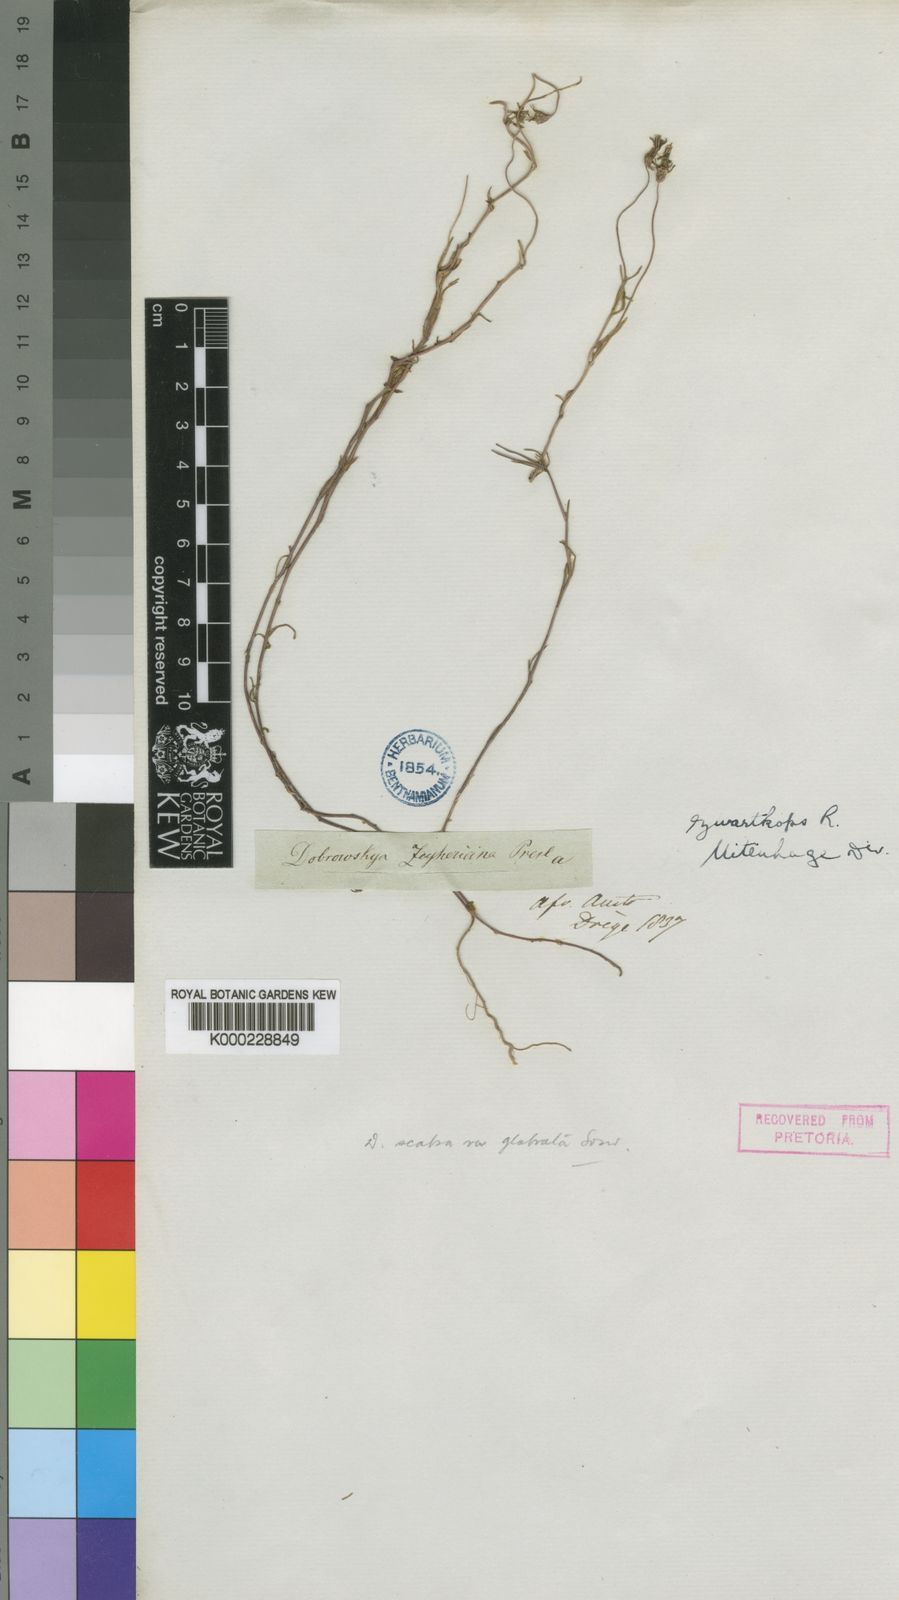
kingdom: Plantae
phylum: Tracheophyta
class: Magnoliopsida
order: Asterales
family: Campanulaceae
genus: Monopsis
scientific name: Monopsis unidentata
